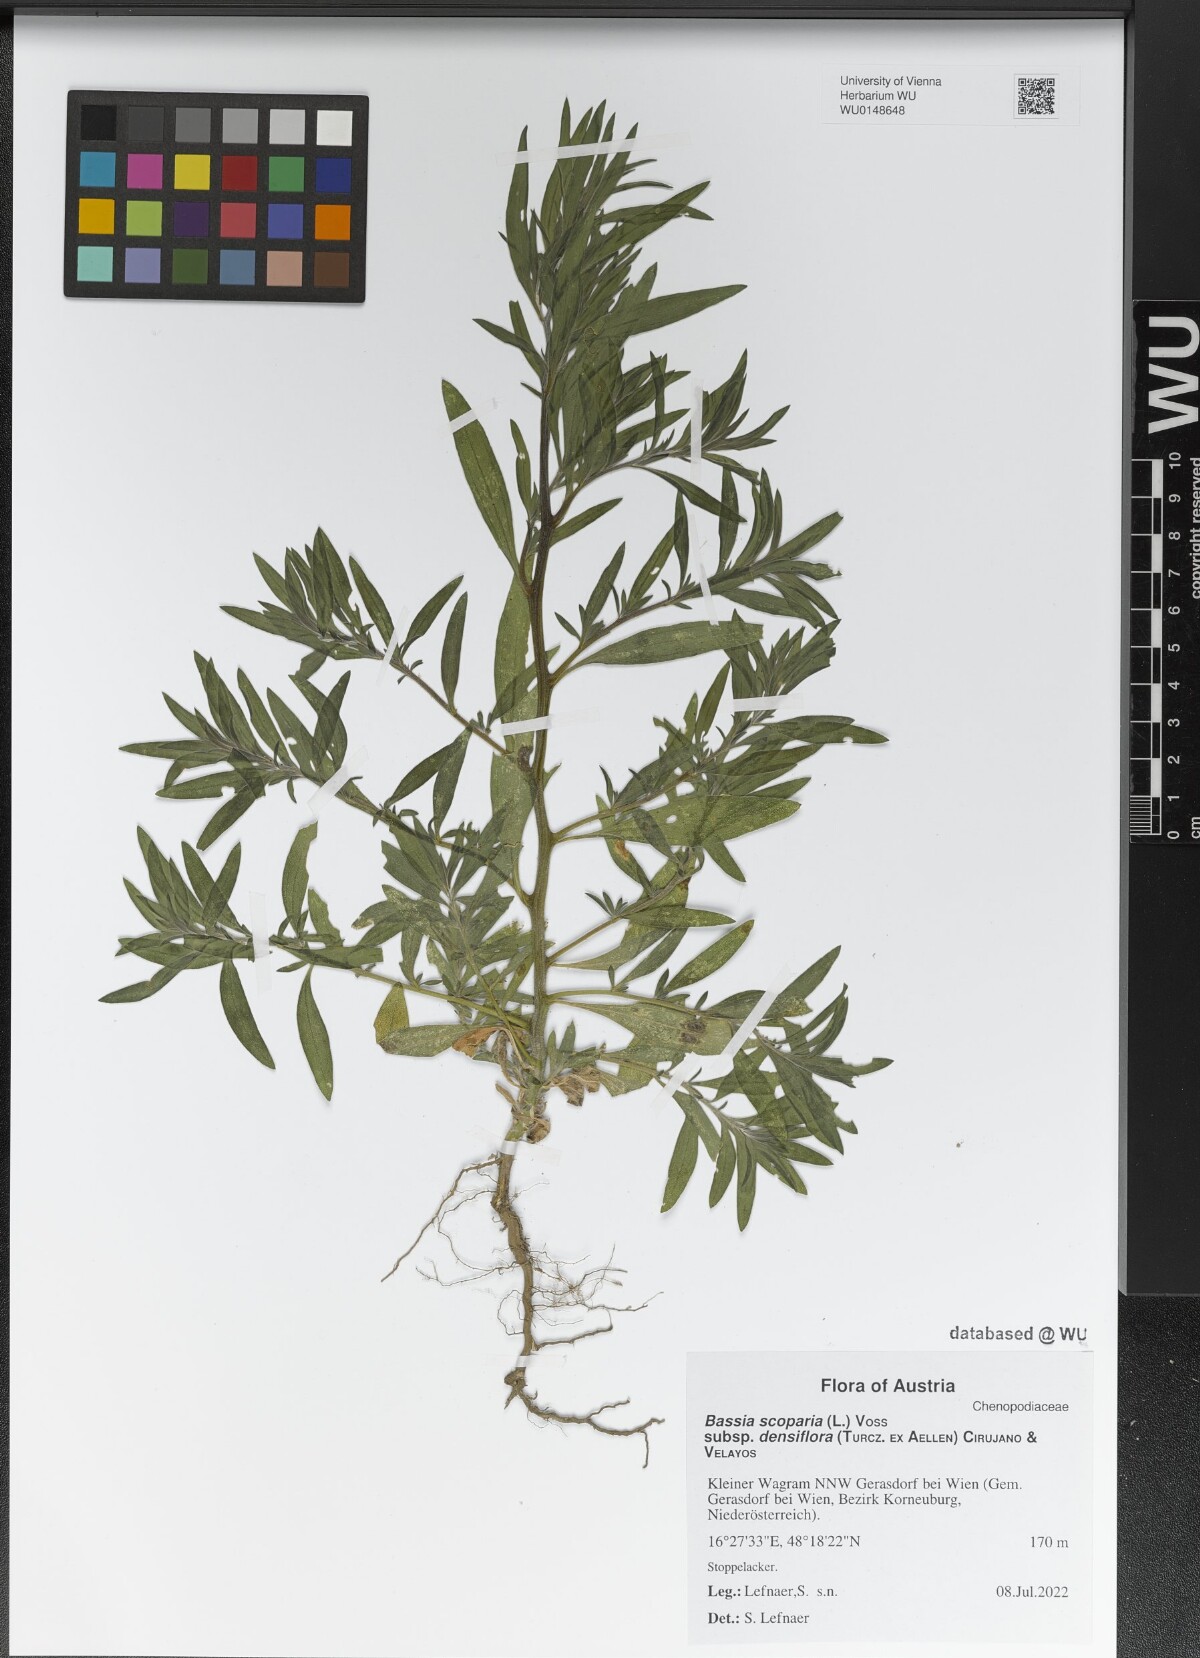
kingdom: Plantae
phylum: Tracheophyta
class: Magnoliopsida
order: Caryophyllales
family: Amaranthaceae
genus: Bassia
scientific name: Bassia scoparia
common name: Belvedere
